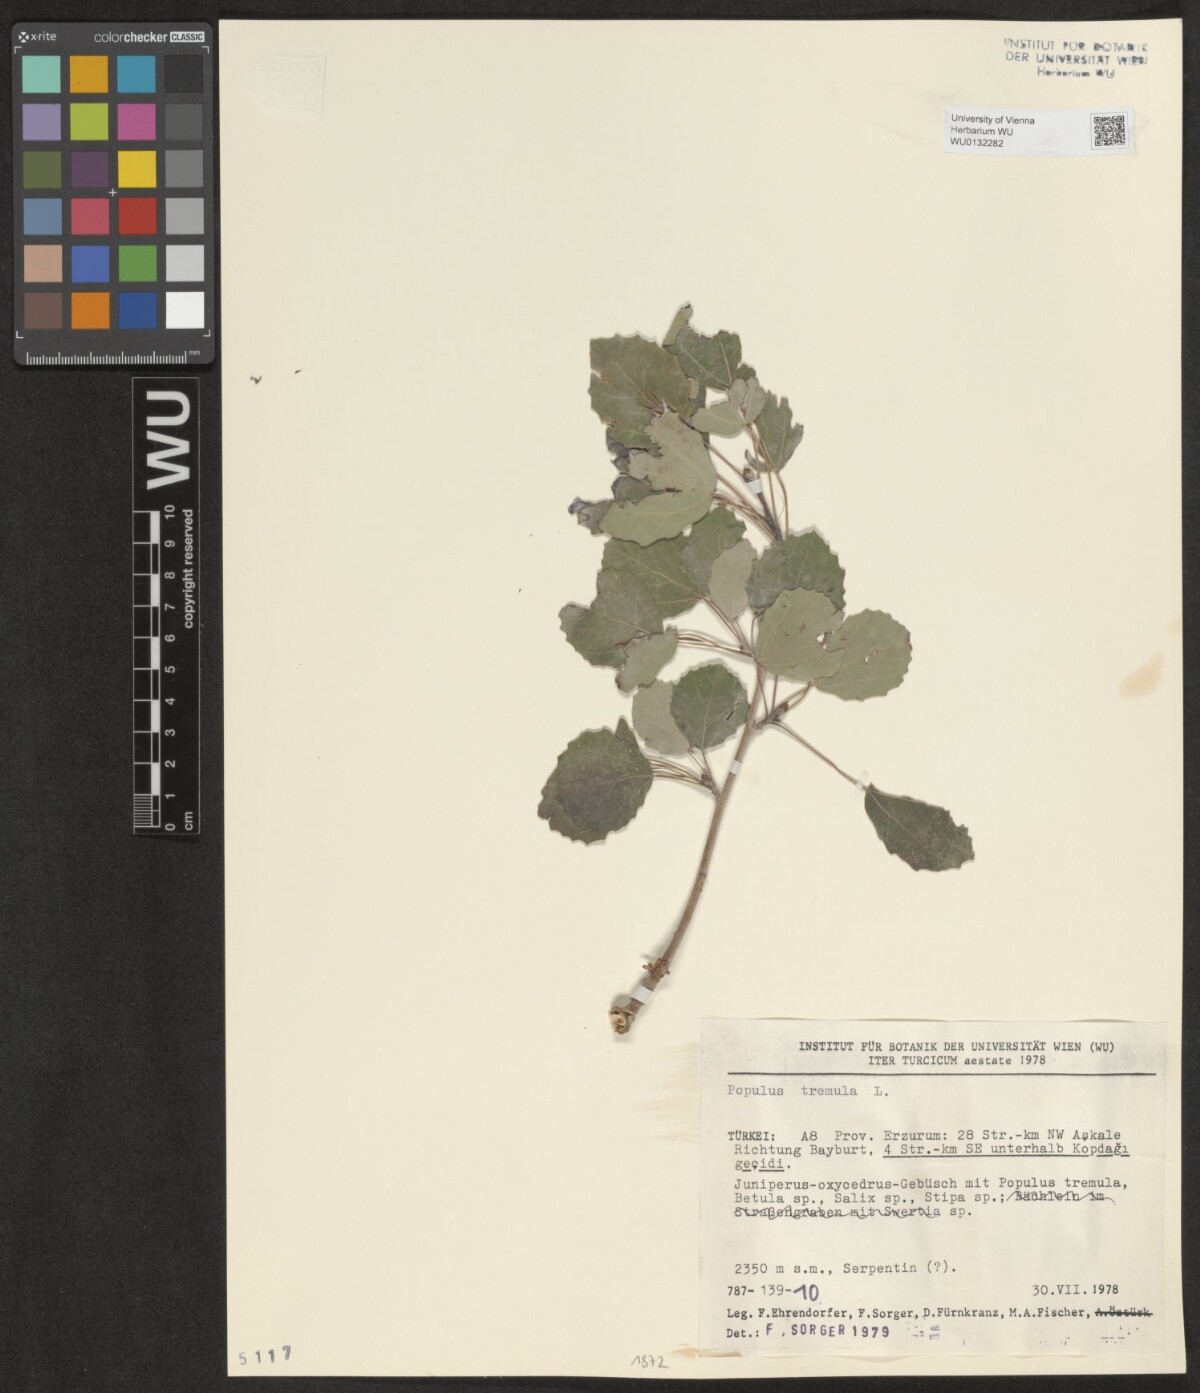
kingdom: Plantae
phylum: Tracheophyta
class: Magnoliopsida
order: Malpighiales
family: Salicaceae
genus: Populus
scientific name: Populus tremula
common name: European aspen
